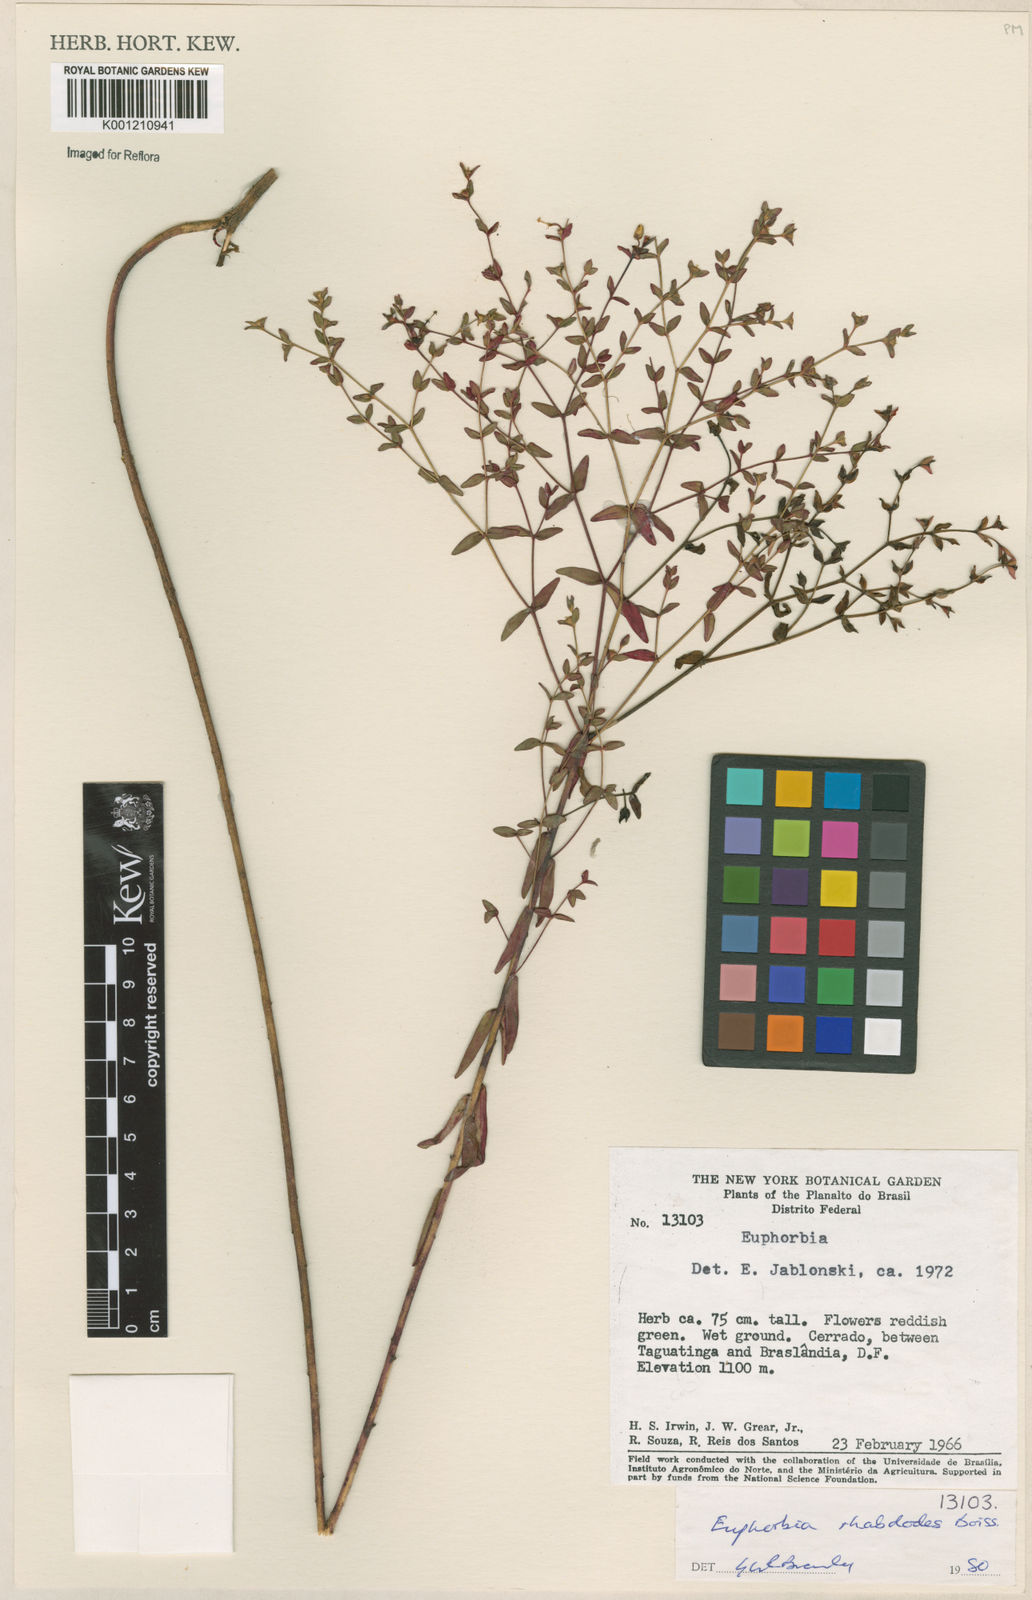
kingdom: Plantae
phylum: Tracheophyta
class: Magnoliopsida
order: Malpighiales
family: Euphorbiaceae
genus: Euphorbia
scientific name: Euphorbia rhabdodes
